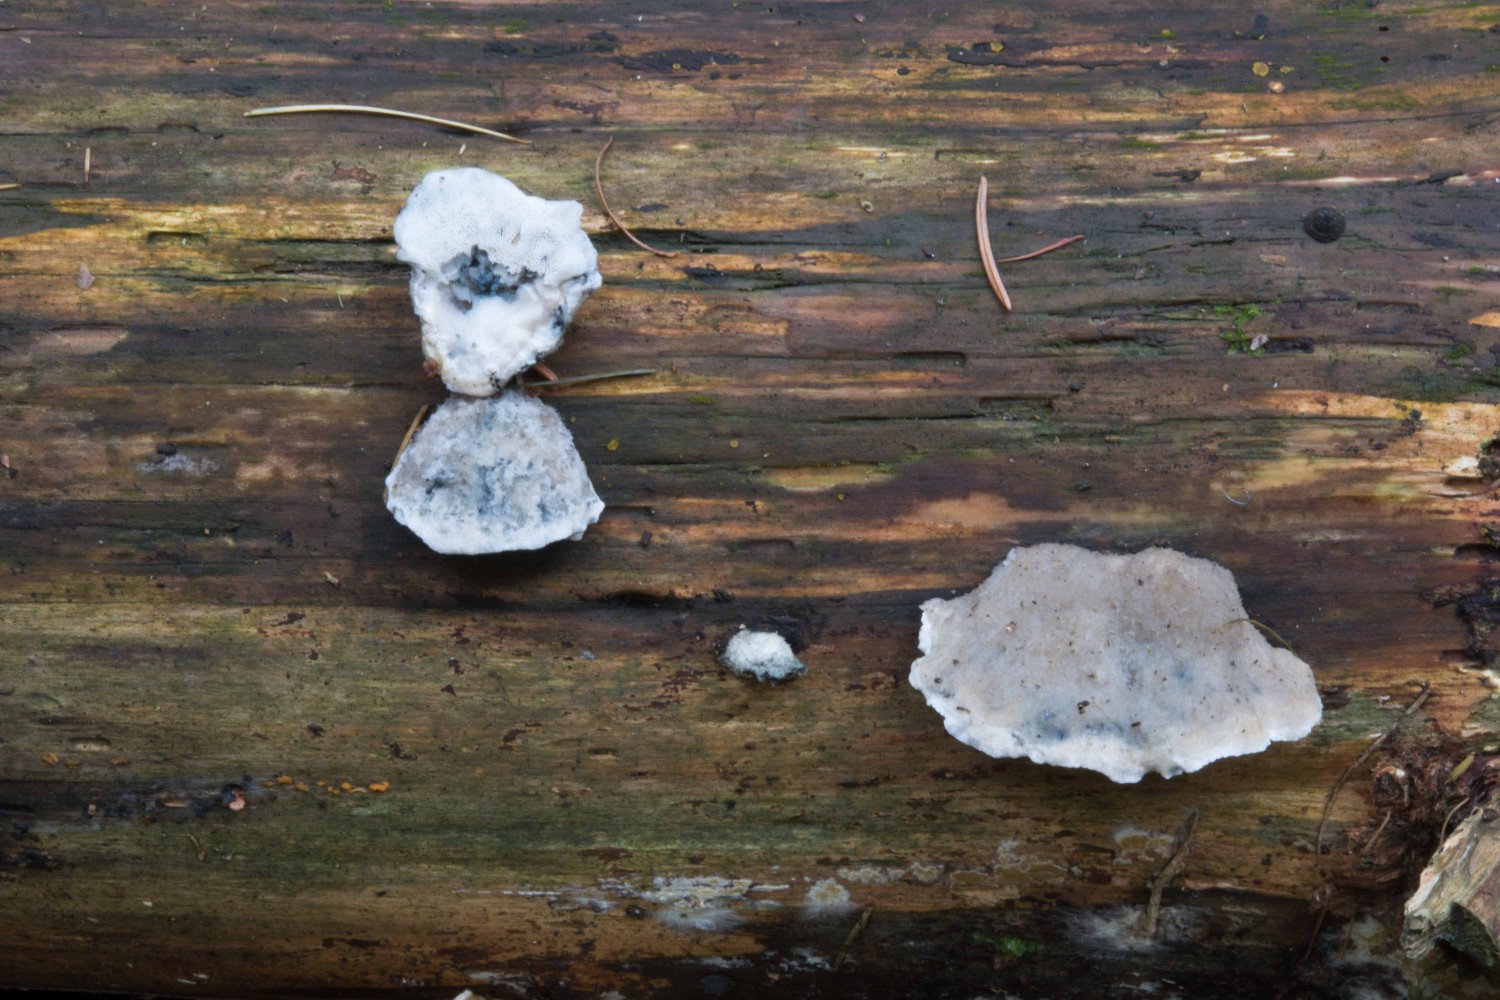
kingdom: Fungi
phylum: Basidiomycota
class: Agaricomycetes
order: Polyporales
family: Polyporaceae
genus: Cyanosporus
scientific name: Cyanosporus caesius
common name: blålig kødporesvamp
